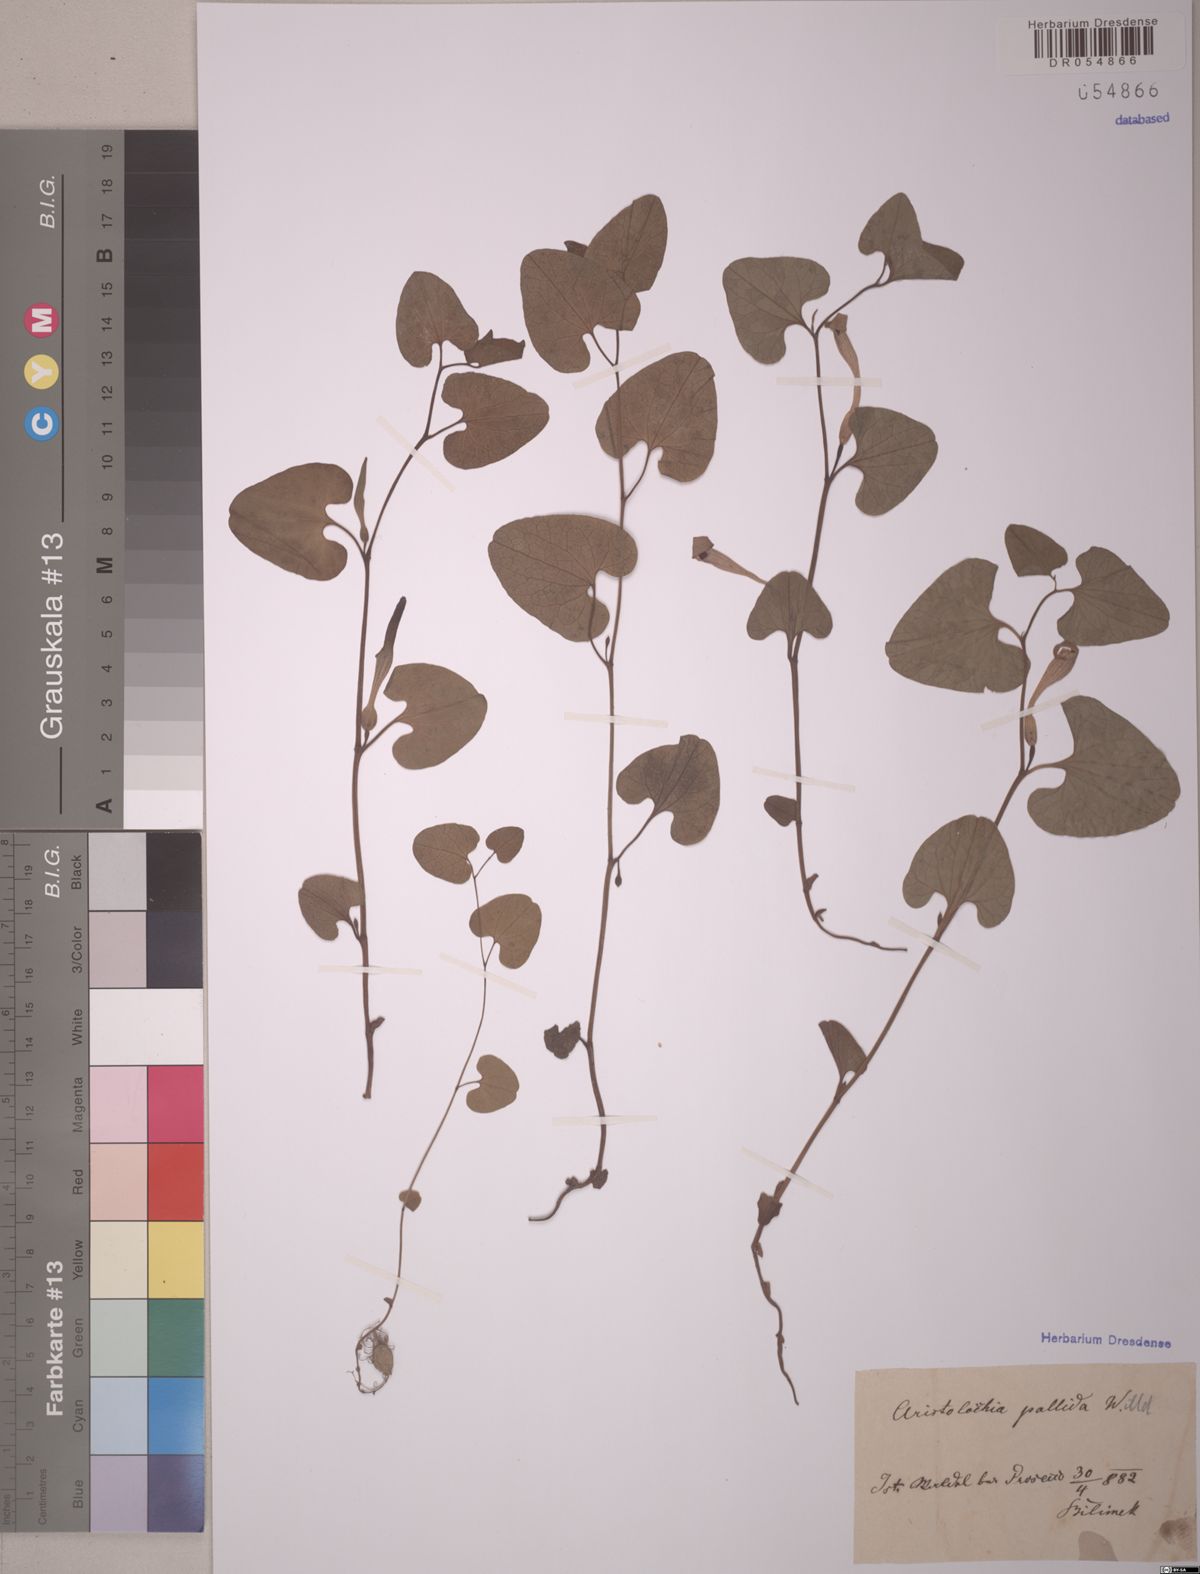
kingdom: Plantae
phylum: Tracheophyta
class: Magnoliopsida
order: Piperales
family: Aristolochiaceae
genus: Aristolochia
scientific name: Aristolochia pallida
